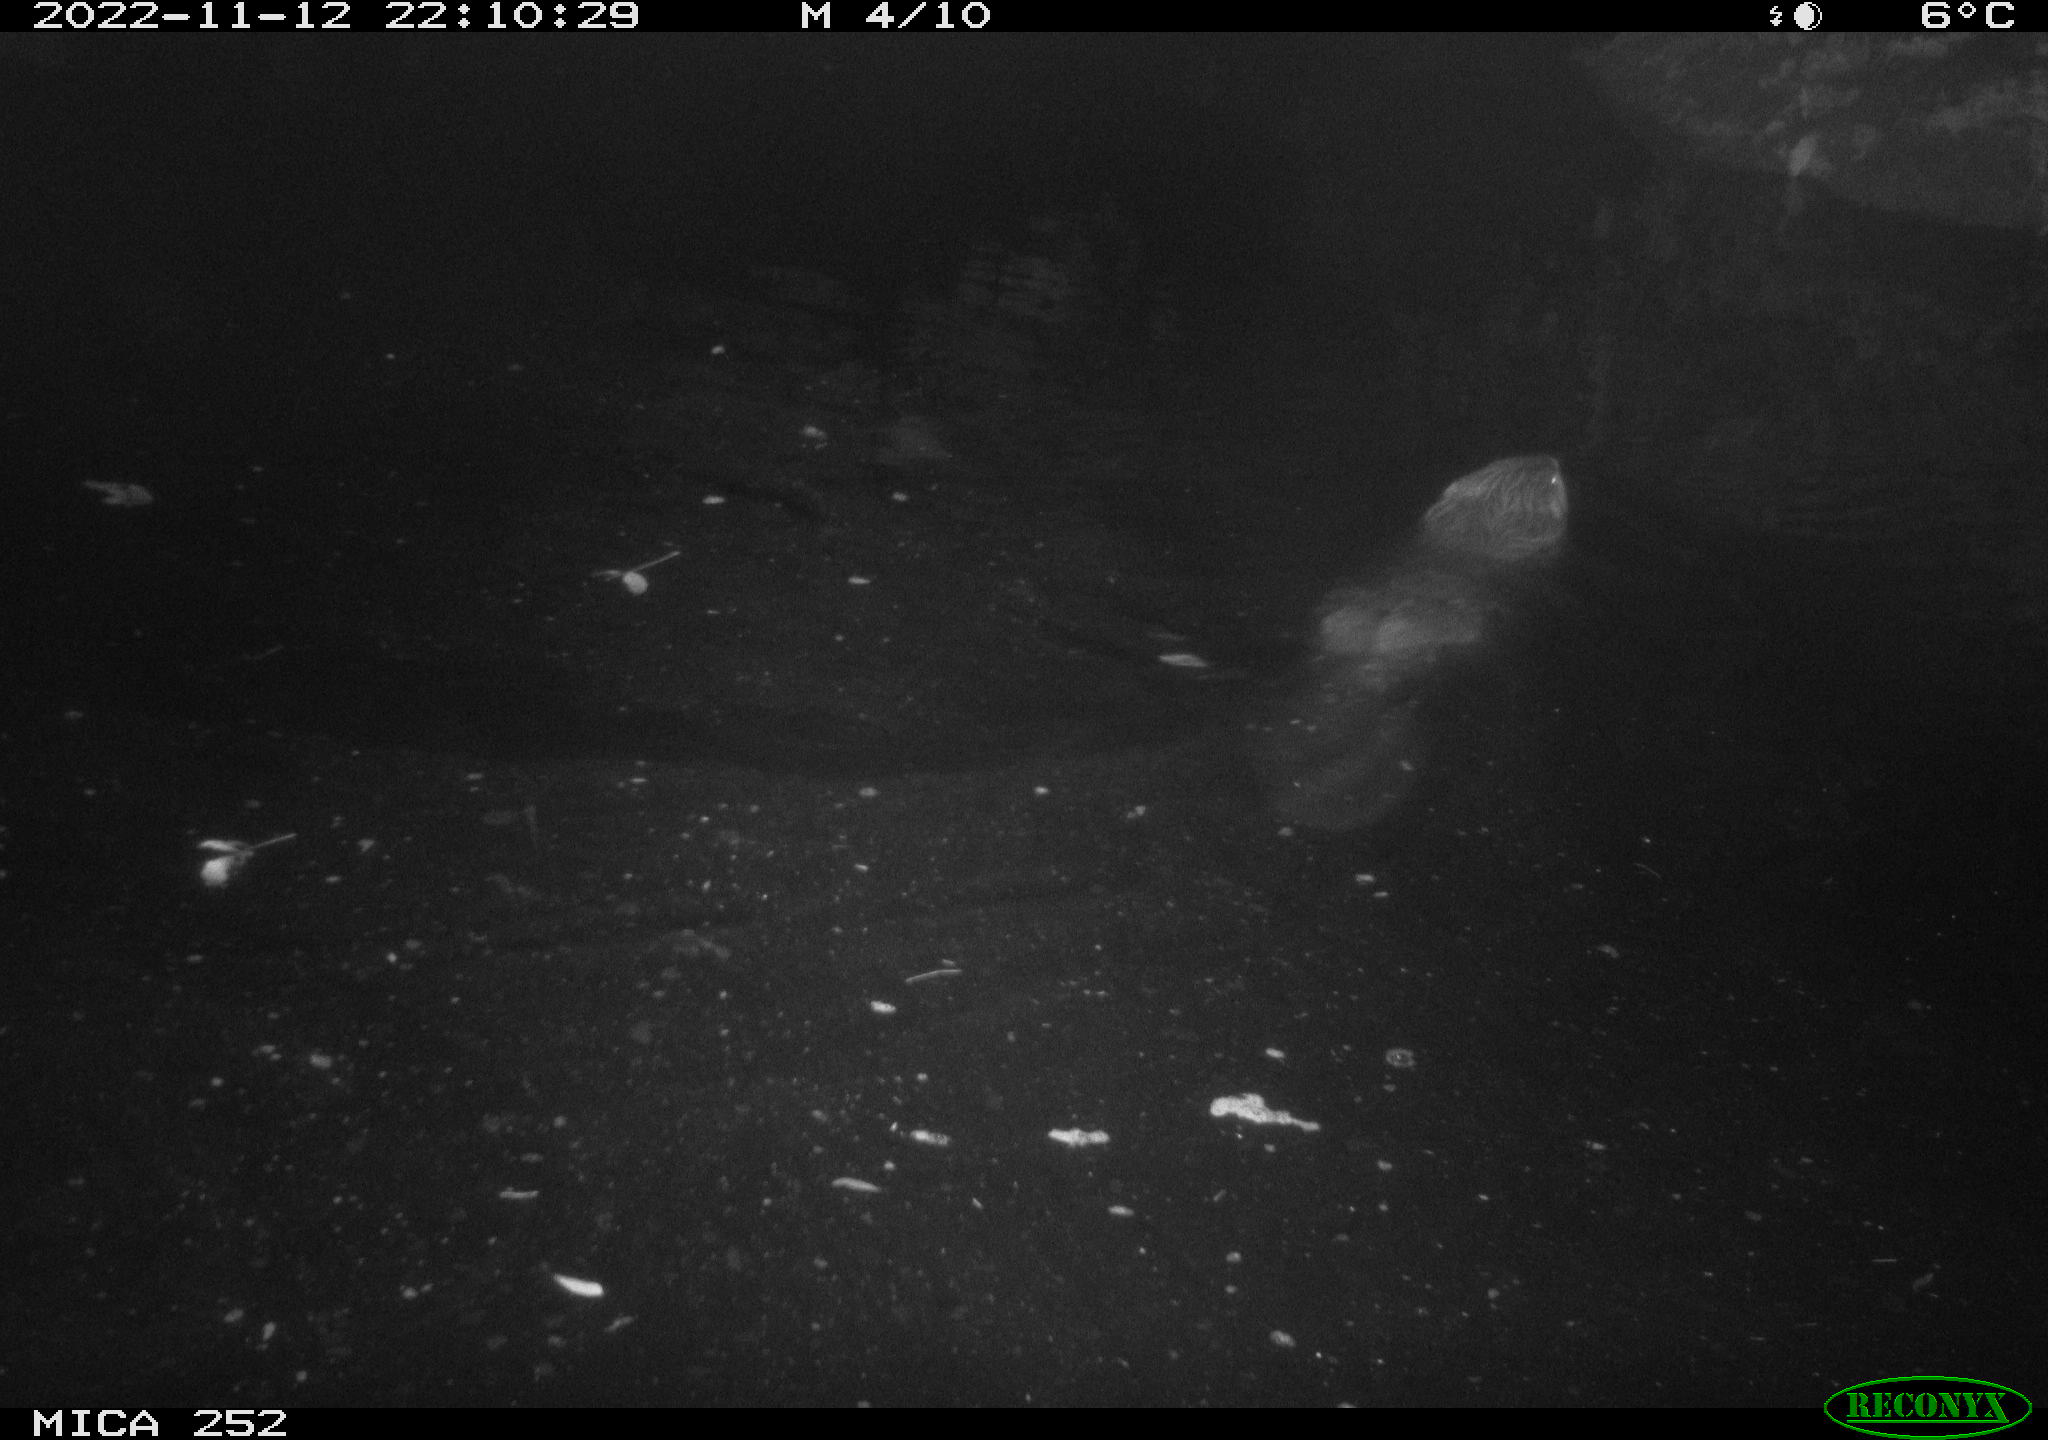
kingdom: Animalia
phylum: Chordata
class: Mammalia
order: Rodentia
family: Castoridae
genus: Castor
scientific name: Castor fiber
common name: Eurasian beaver
